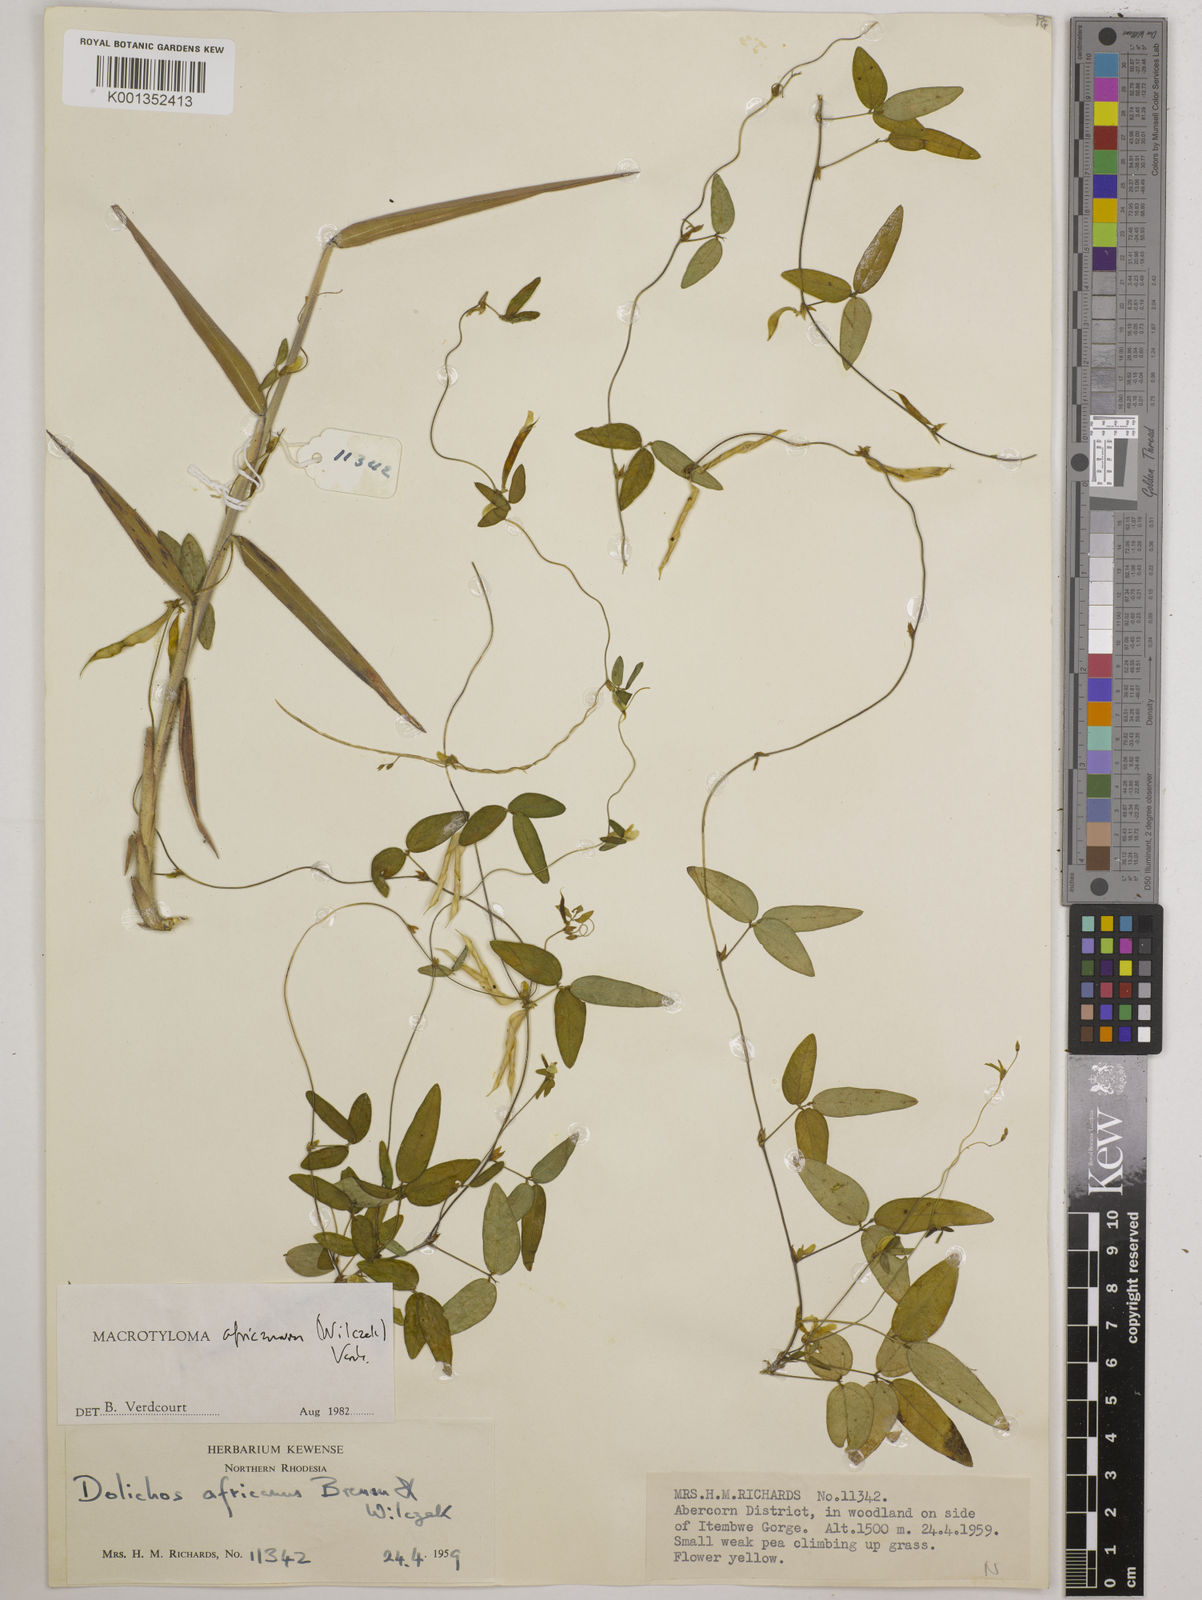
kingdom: Plantae
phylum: Tracheophyta
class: Magnoliopsida
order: Fabales
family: Fabaceae
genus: Macrotyloma
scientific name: Macrotyloma africanum
